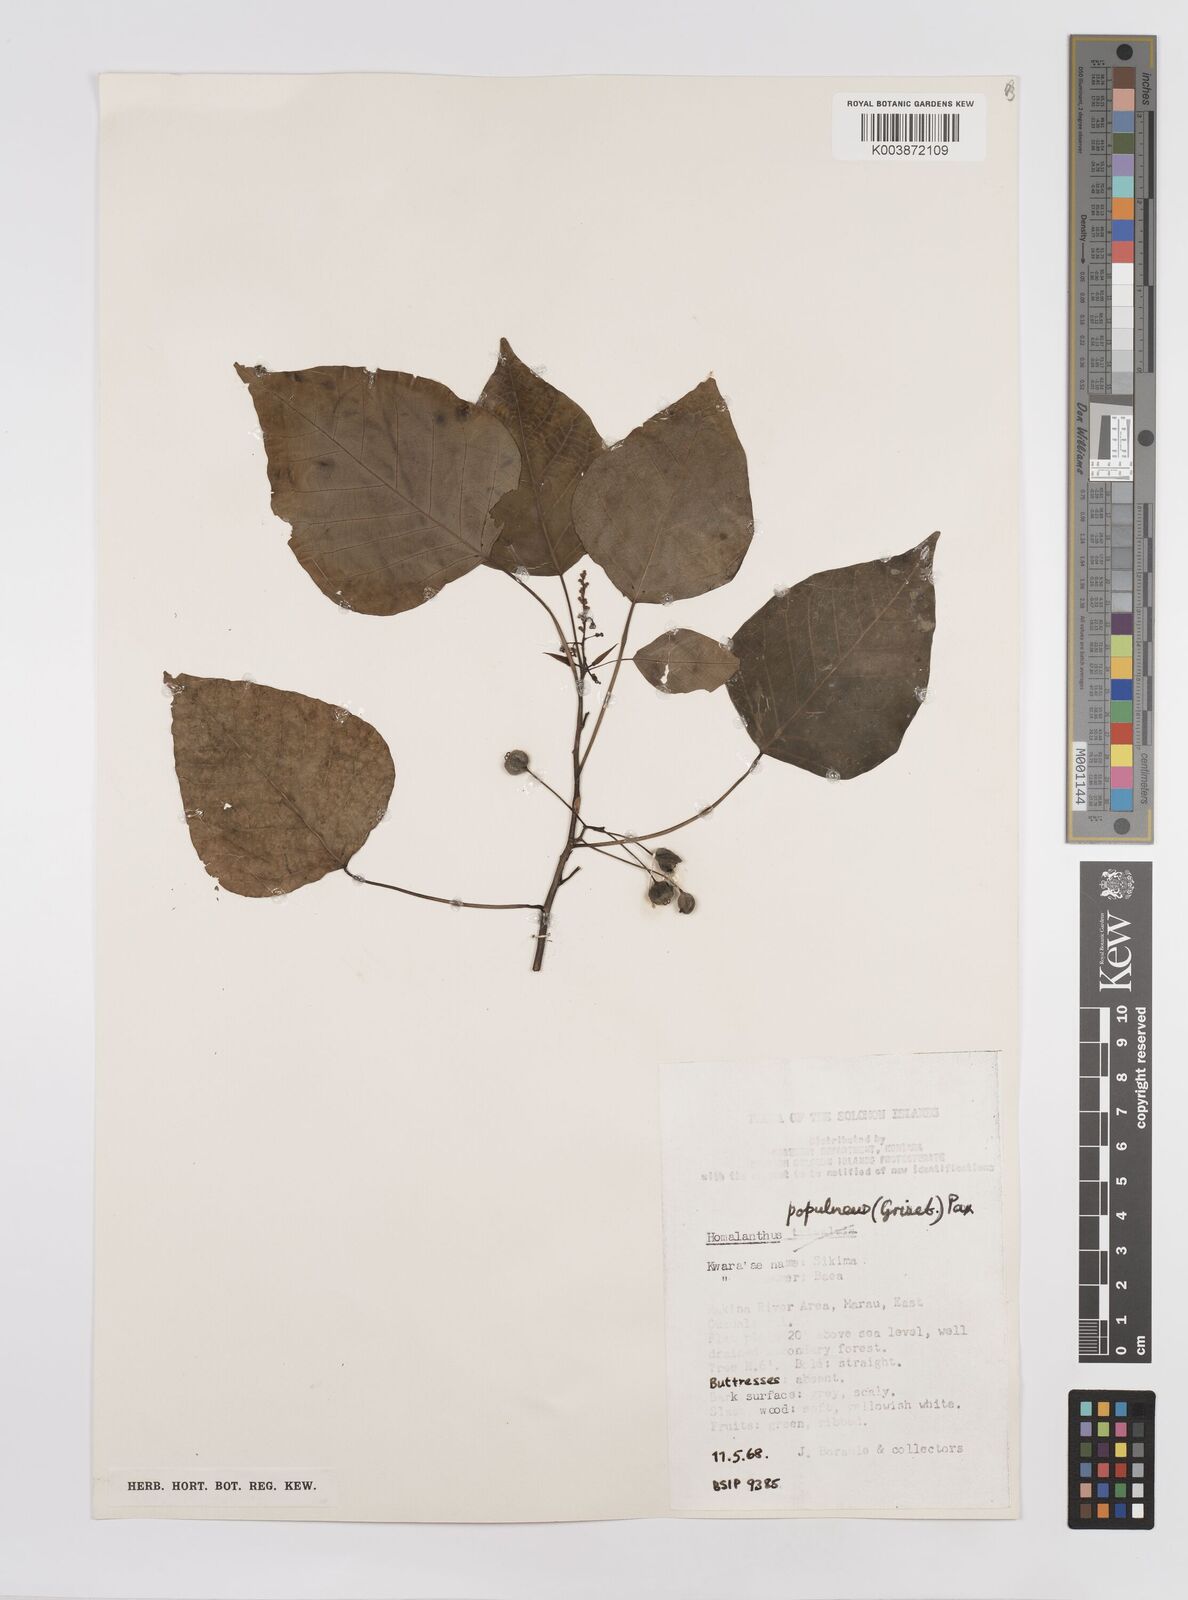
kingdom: Plantae
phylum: Tracheophyta
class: Magnoliopsida
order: Malpighiales
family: Euphorbiaceae
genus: Homalanthus
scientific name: Homalanthus populifolius
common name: Queensland poplar
